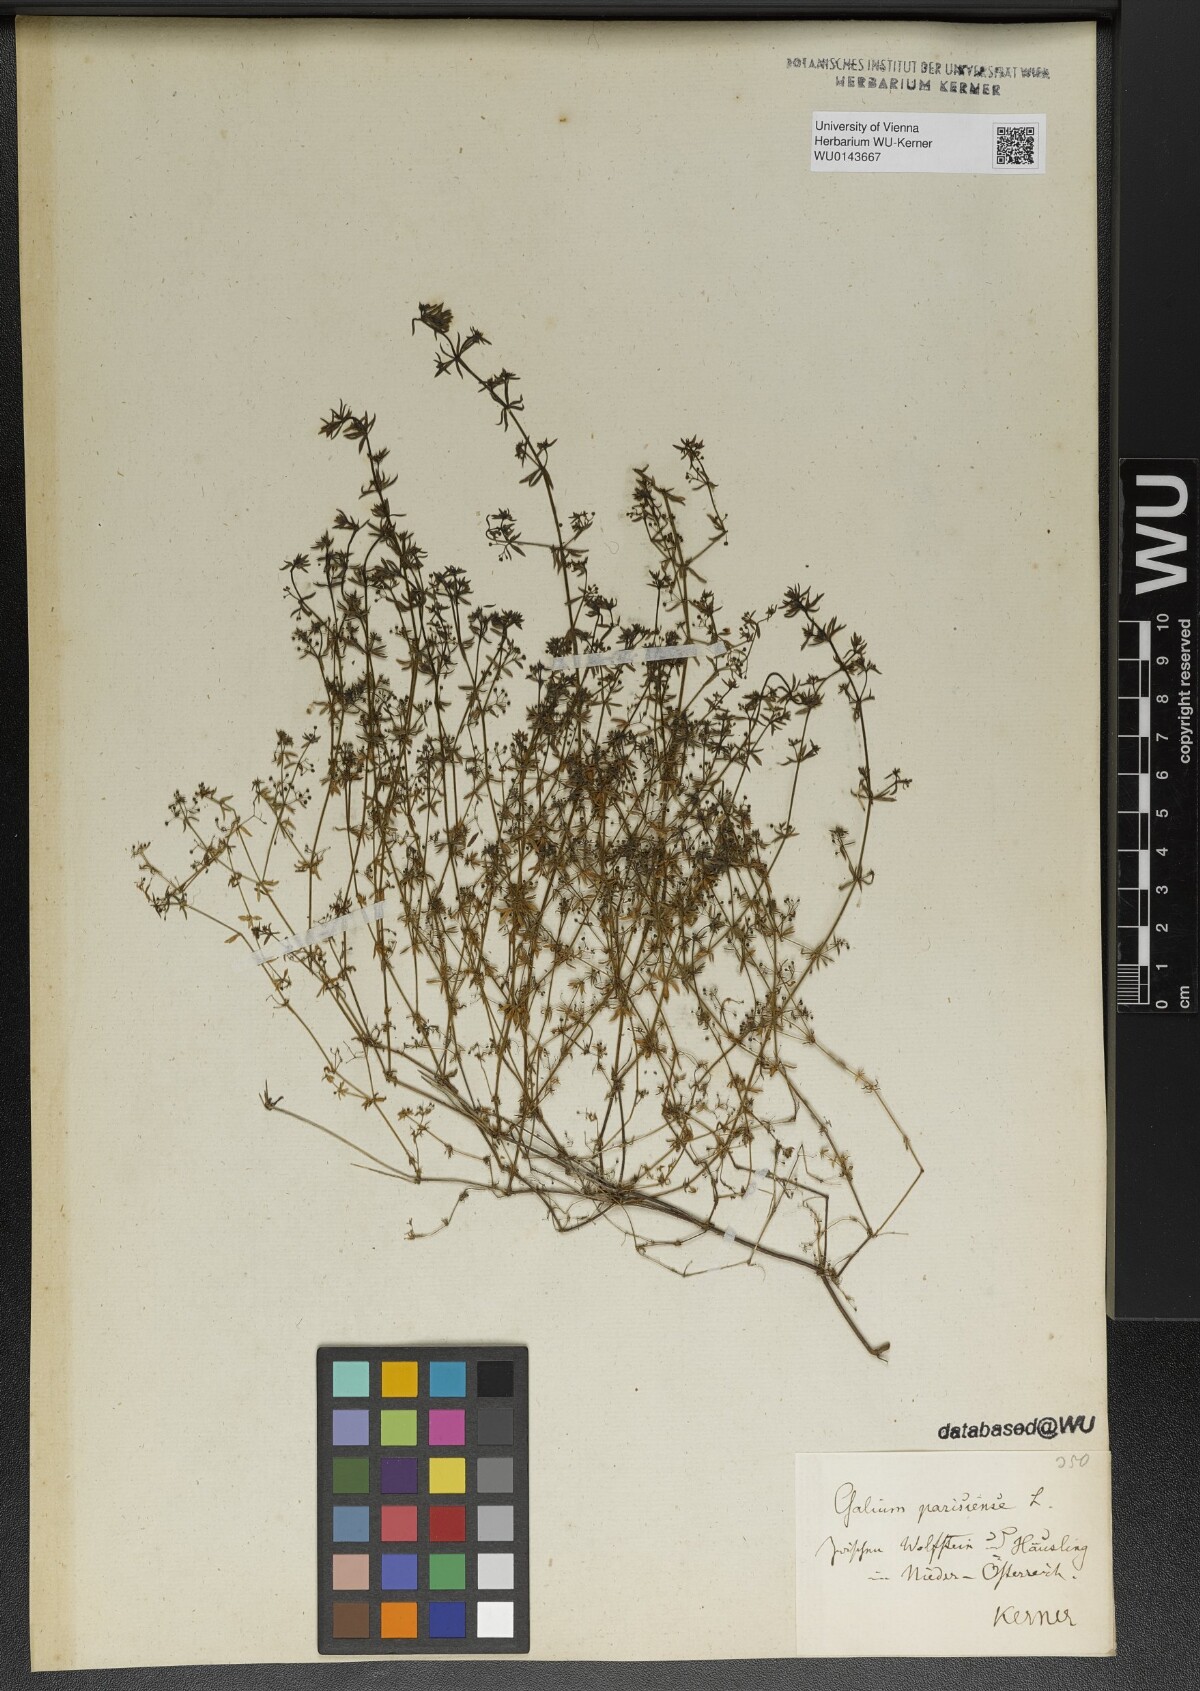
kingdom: Plantae
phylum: Tracheophyta
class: Magnoliopsida
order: Gentianales
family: Rubiaceae
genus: Galium
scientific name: Galium parisiense
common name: Wall bedstraw
